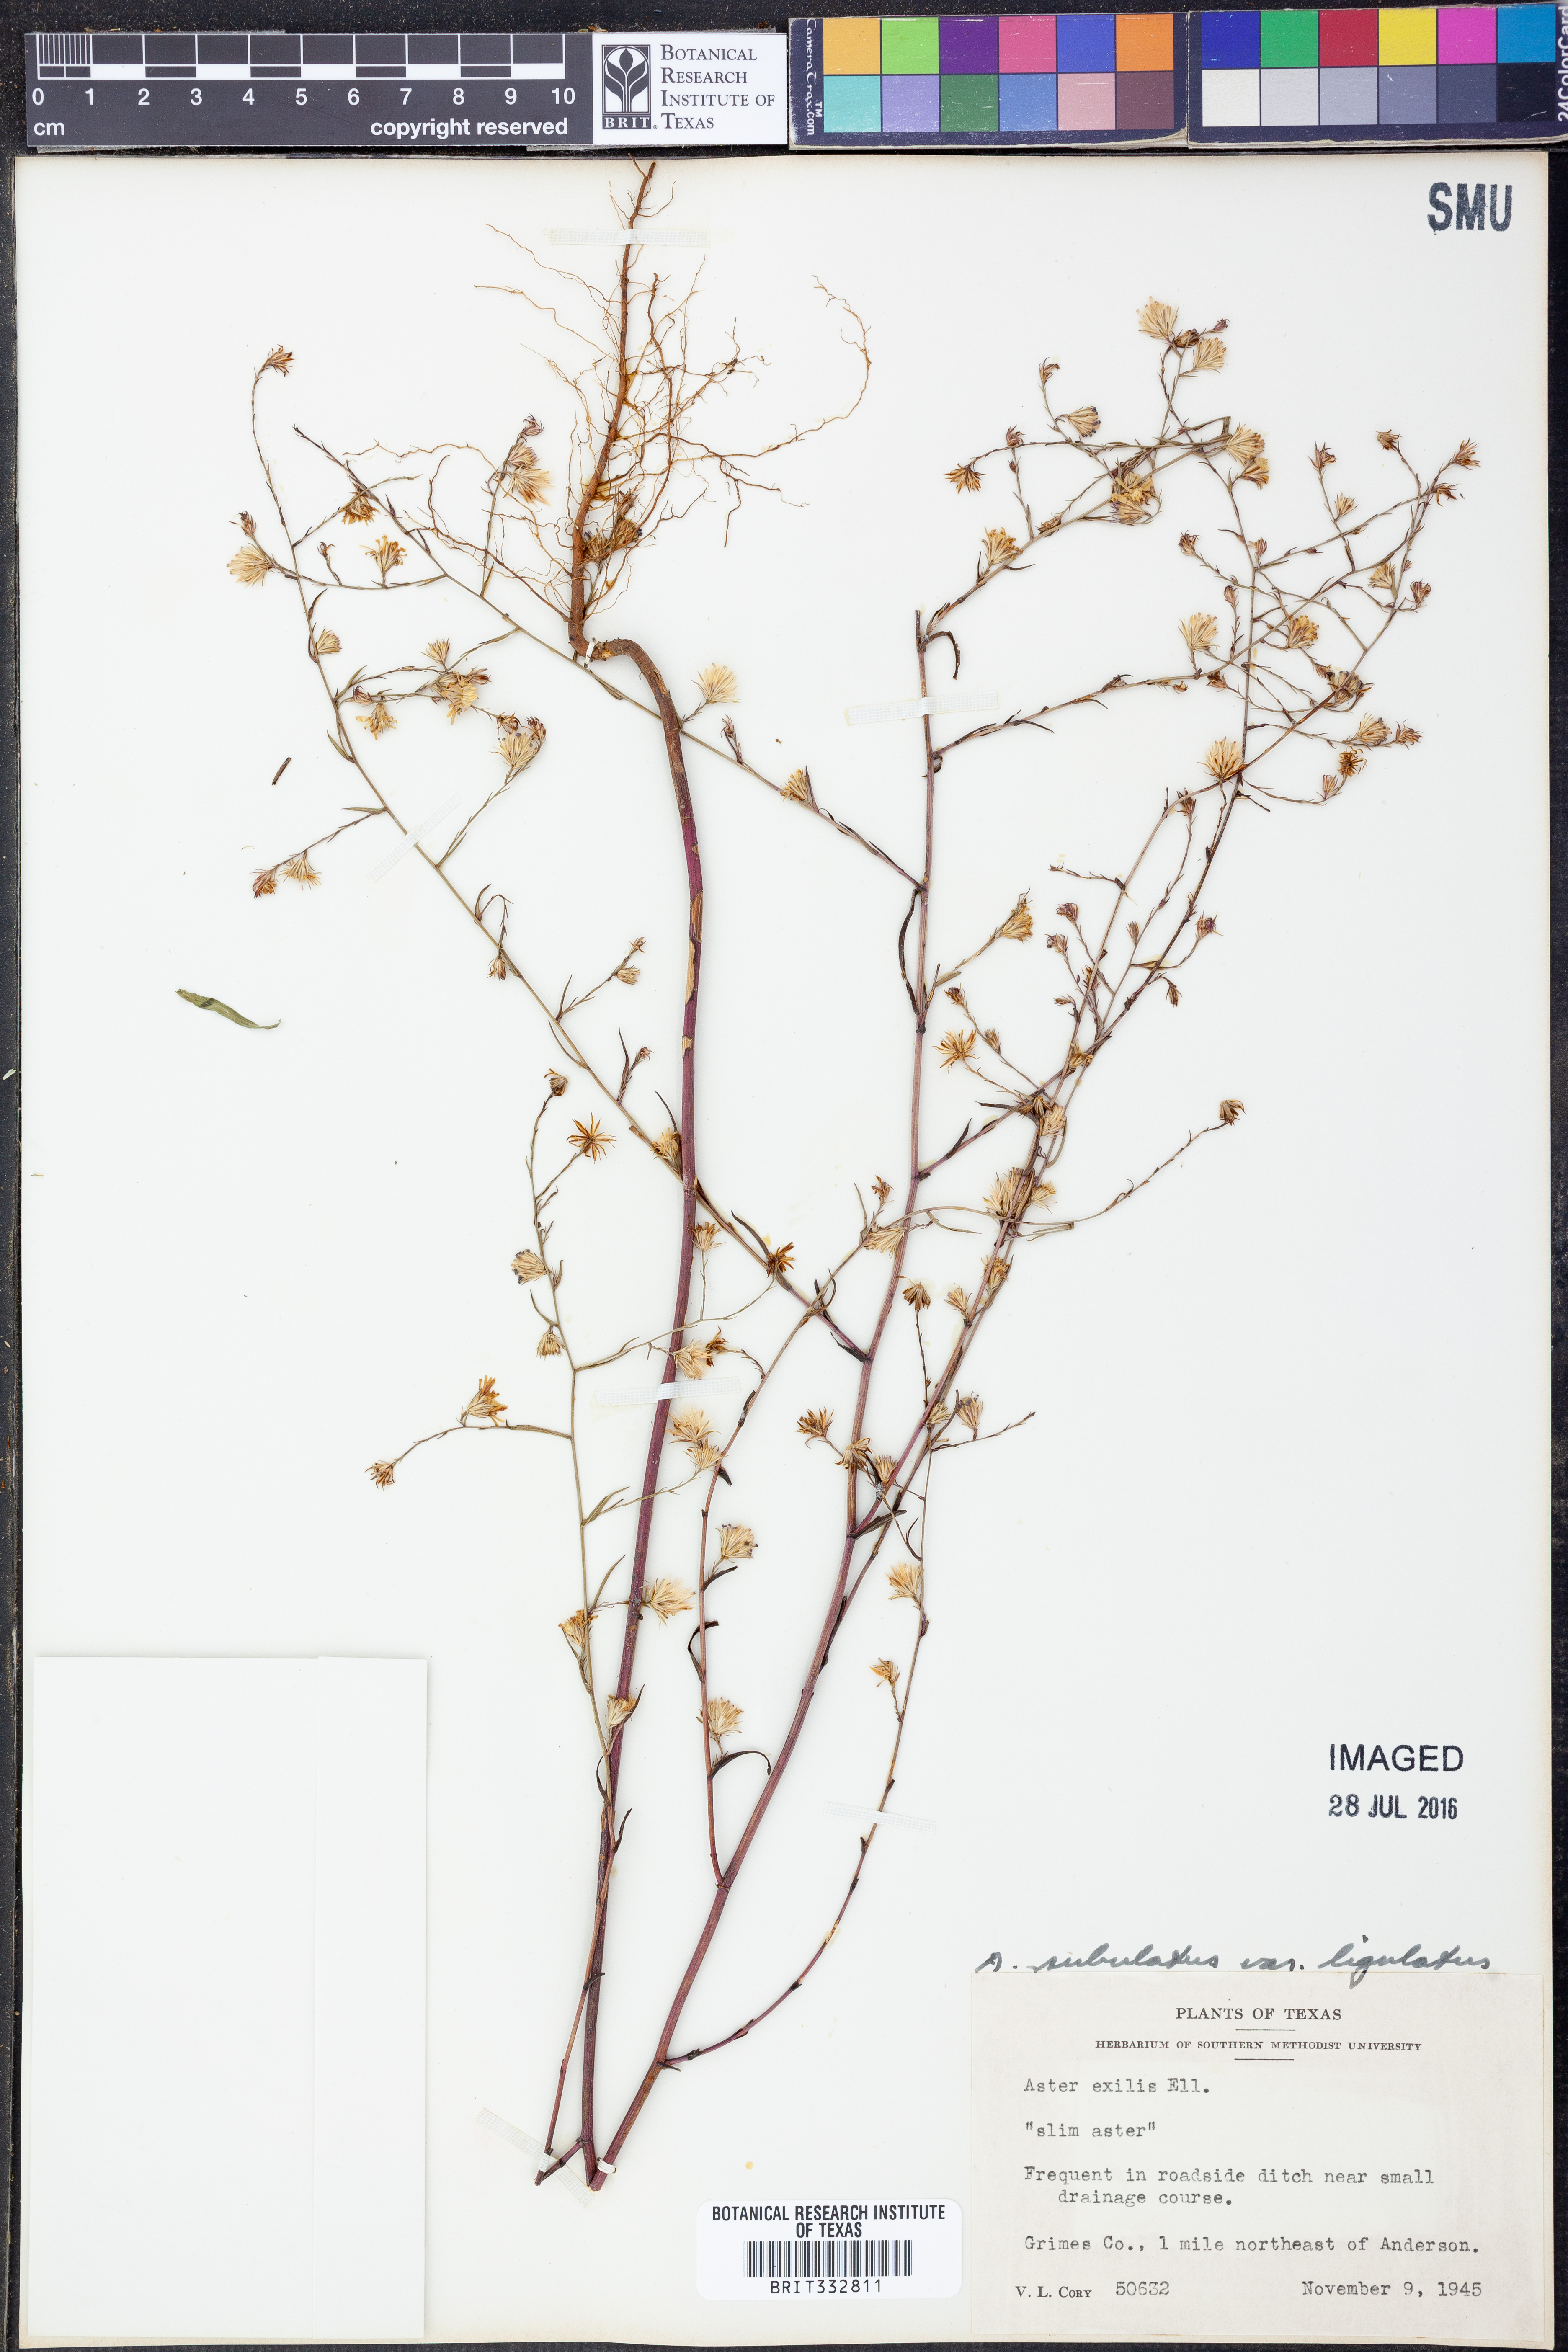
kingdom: Plantae
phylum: Tracheophyta
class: Magnoliopsida
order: Asterales
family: Asteraceae
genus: Symphyotrichum
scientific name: Symphyotrichum divaricatum
